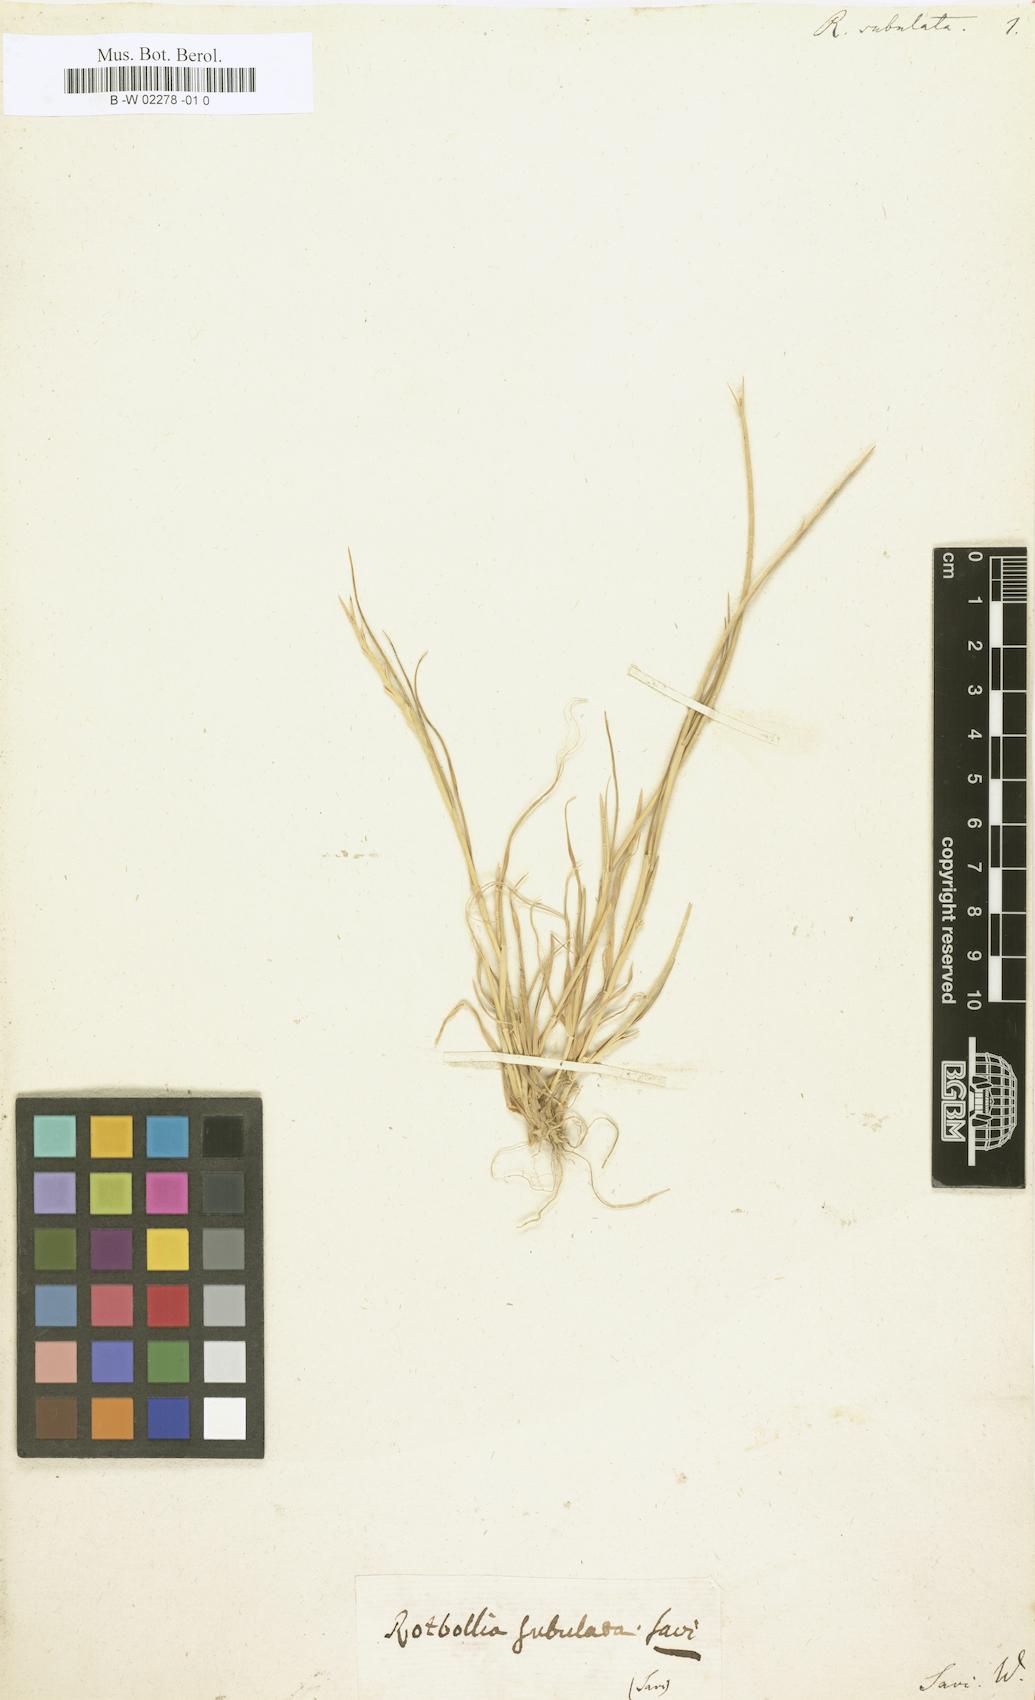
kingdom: Plantae
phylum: Tracheophyta
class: Liliopsida
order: Poales
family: Poaceae
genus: Parapholis
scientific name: Parapholis
